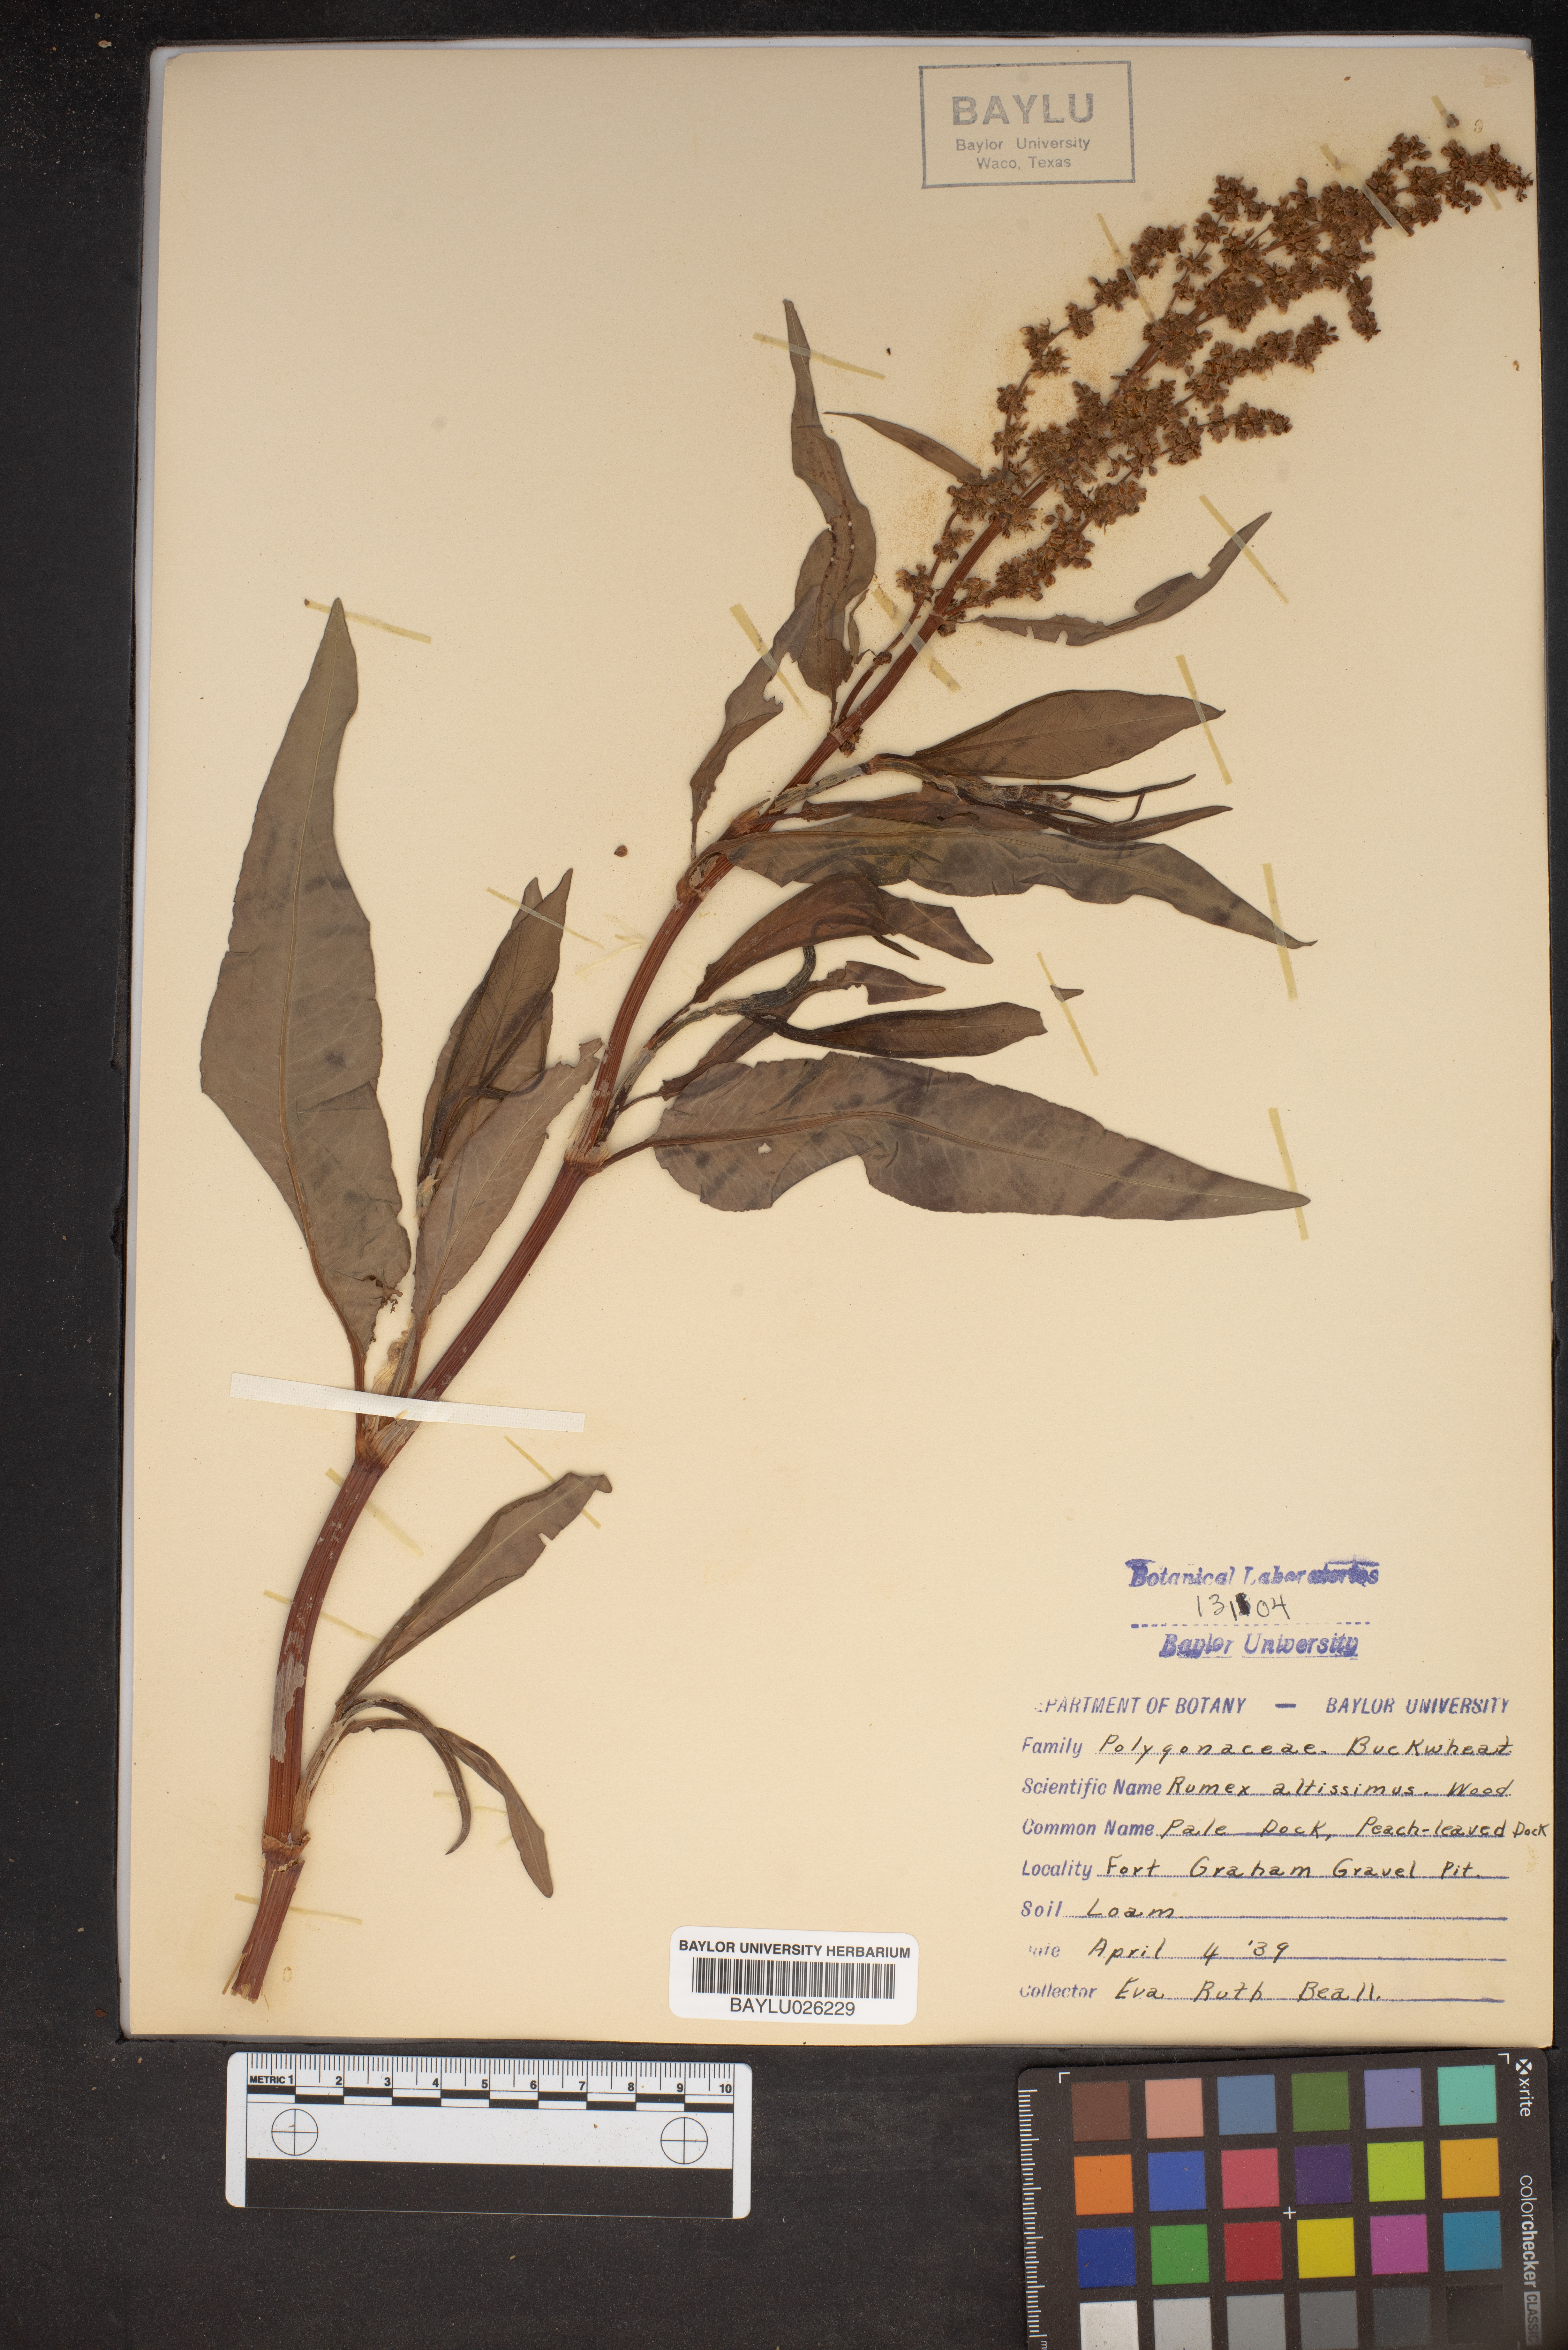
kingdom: Plantae
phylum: Tracheophyta
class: Magnoliopsida
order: Caryophyllales
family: Polygonaceae
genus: Rumex
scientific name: Rumex altissimus
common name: Smooth dock
